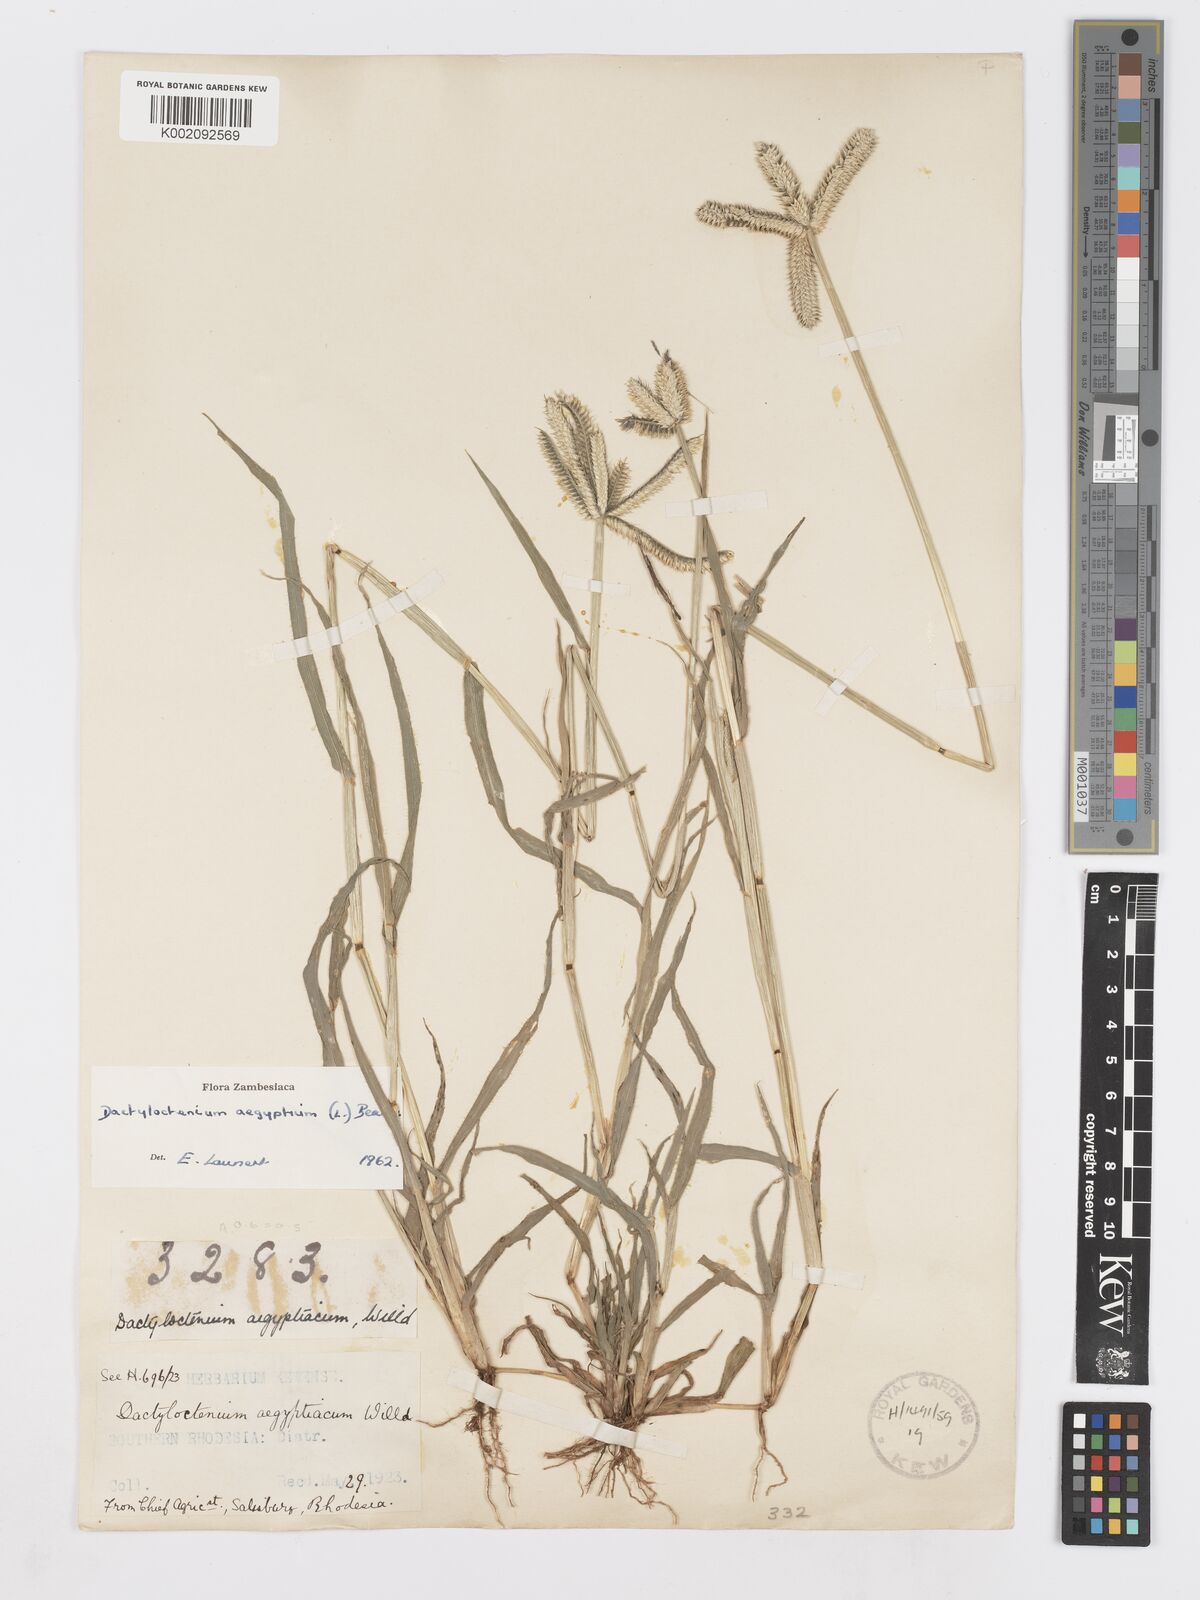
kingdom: Plantae
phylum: Tracheophyta
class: Liliopsida
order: Poales
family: Poaceae
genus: Dactyloctenium
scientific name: Dactyloctenium aegyptium
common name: Egyptian grass
